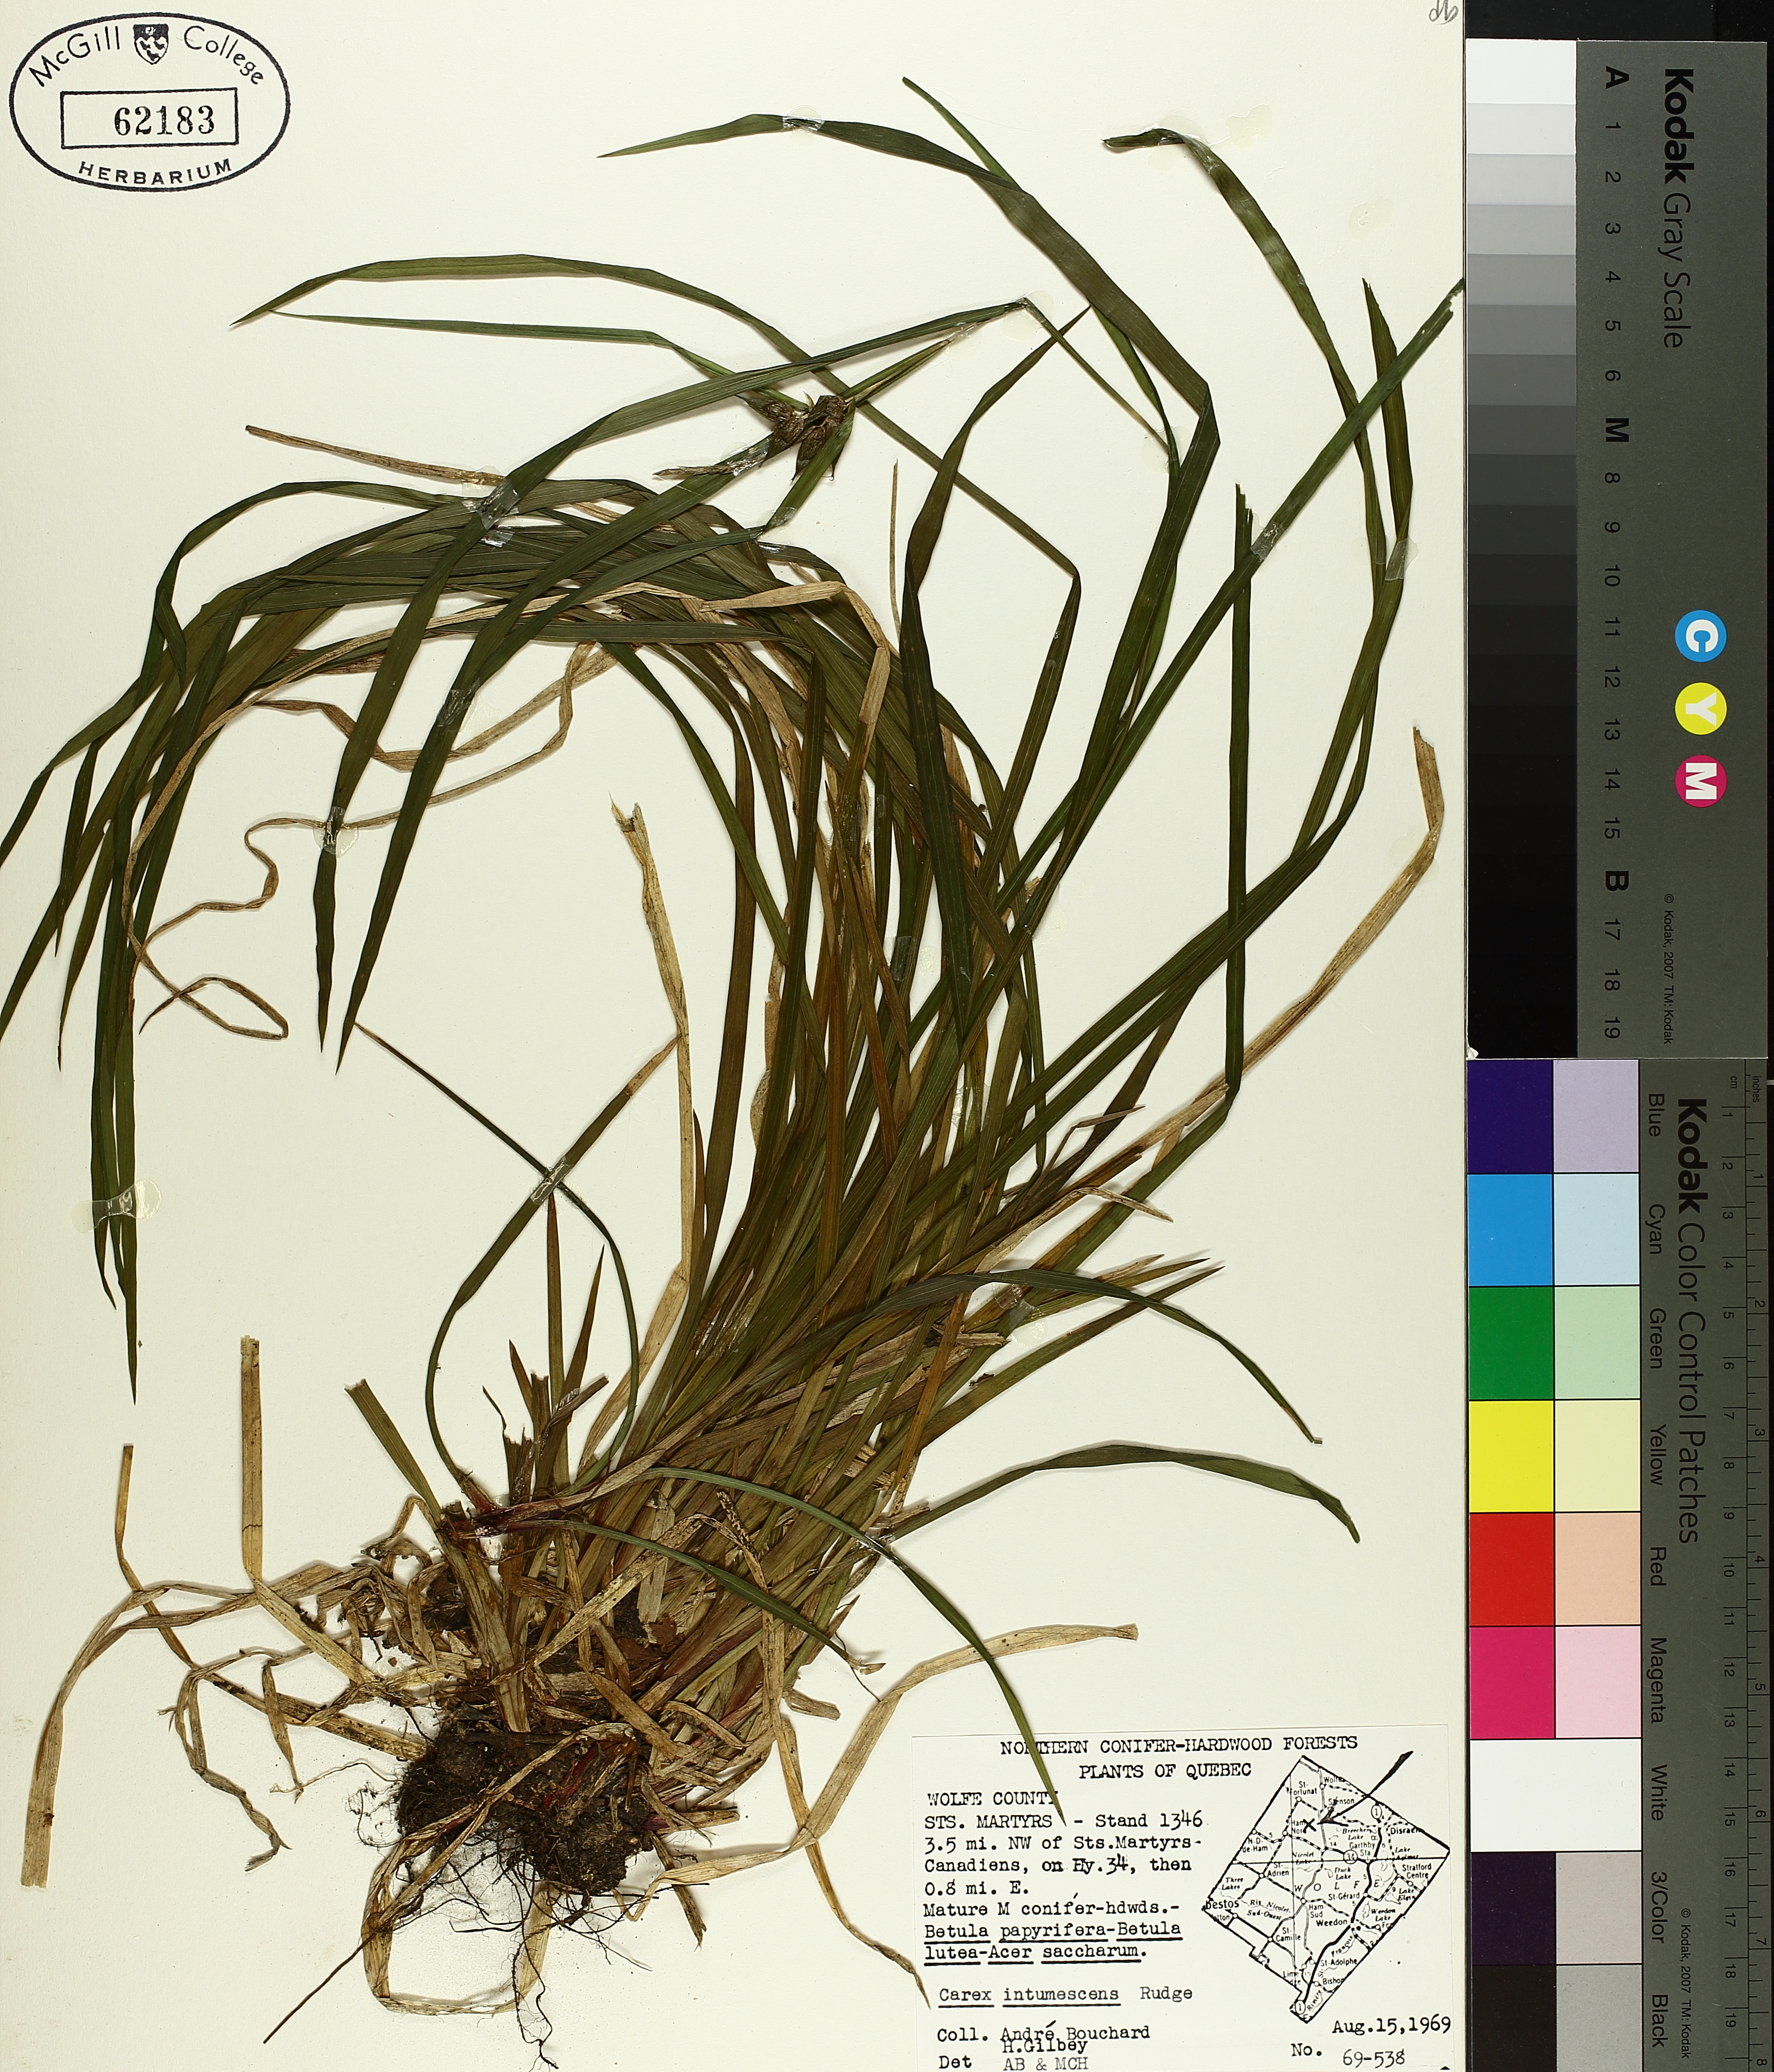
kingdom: Plantae
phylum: Tracheophyta
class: Liliopsida
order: Poales
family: Cyperaceae
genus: Carex
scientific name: Carex intumescens
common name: Greater bladder sedge
